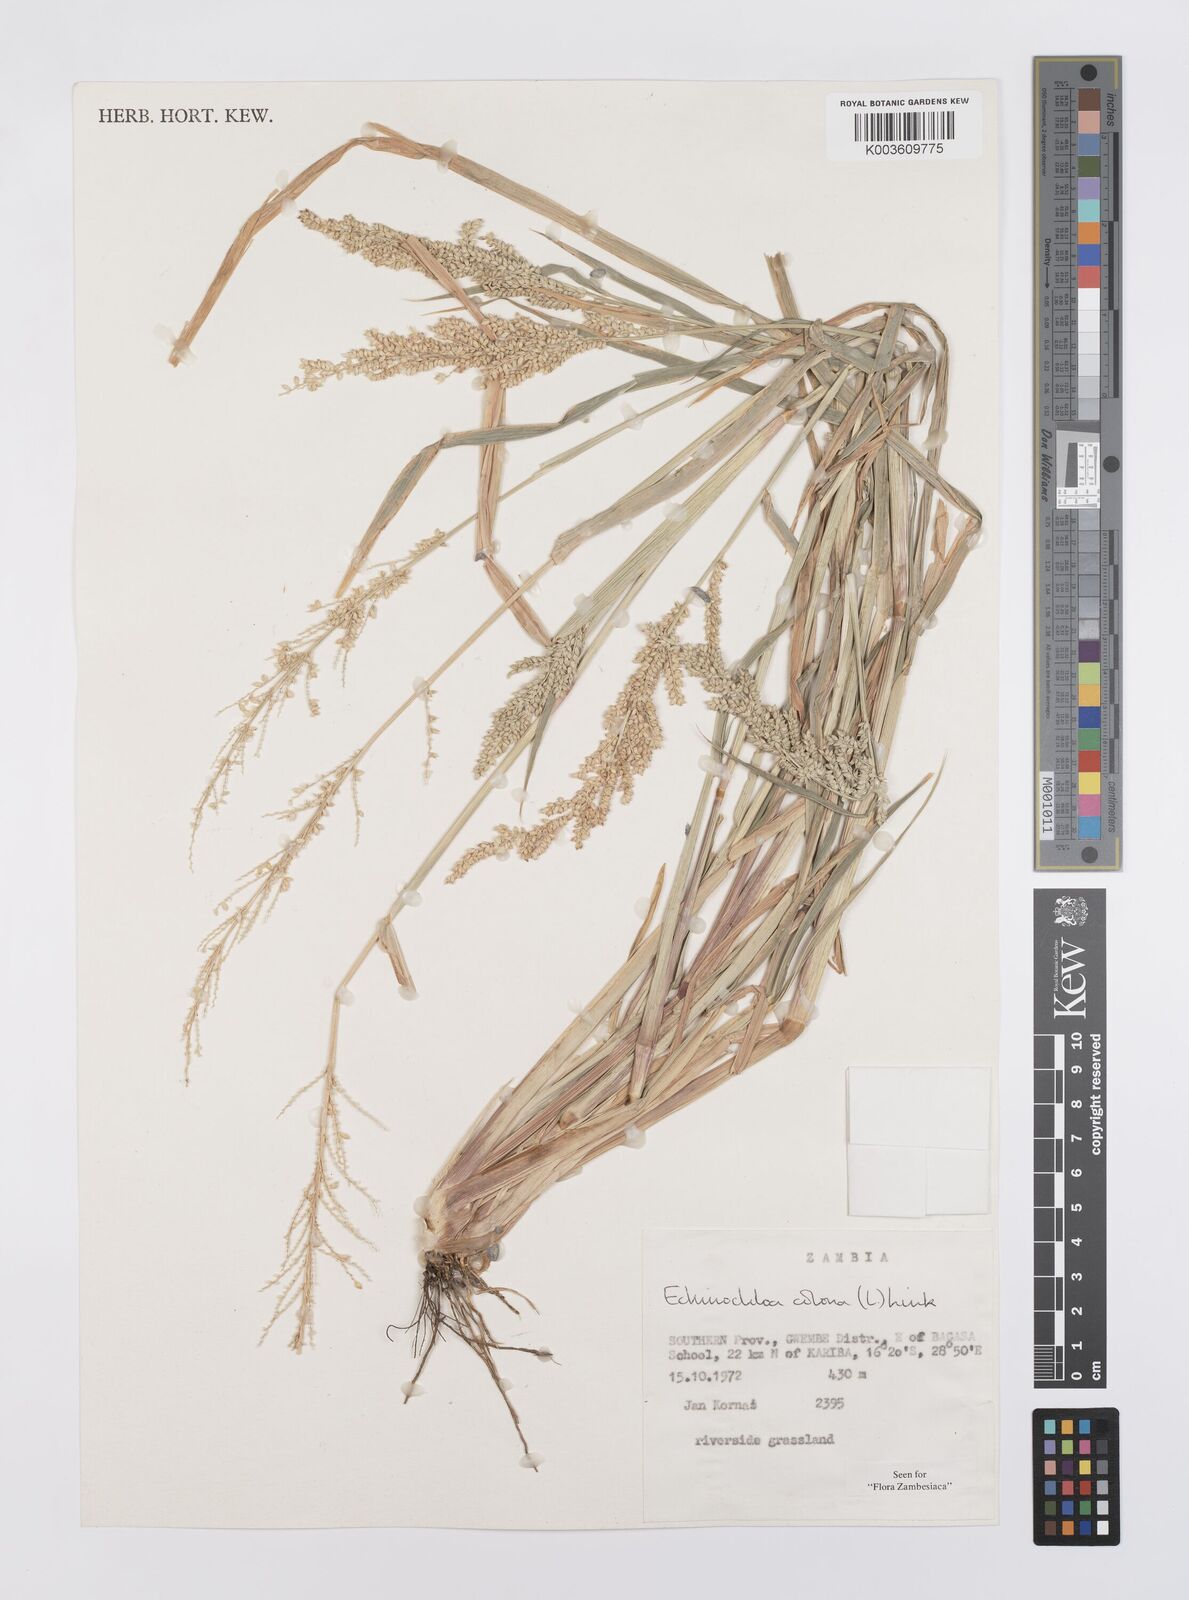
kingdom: Plantae
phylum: Tracheophyta
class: Liliopsida
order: Poales
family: Poaceae
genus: Echinochloa
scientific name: Echinochloa colonum
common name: Jungle rice
